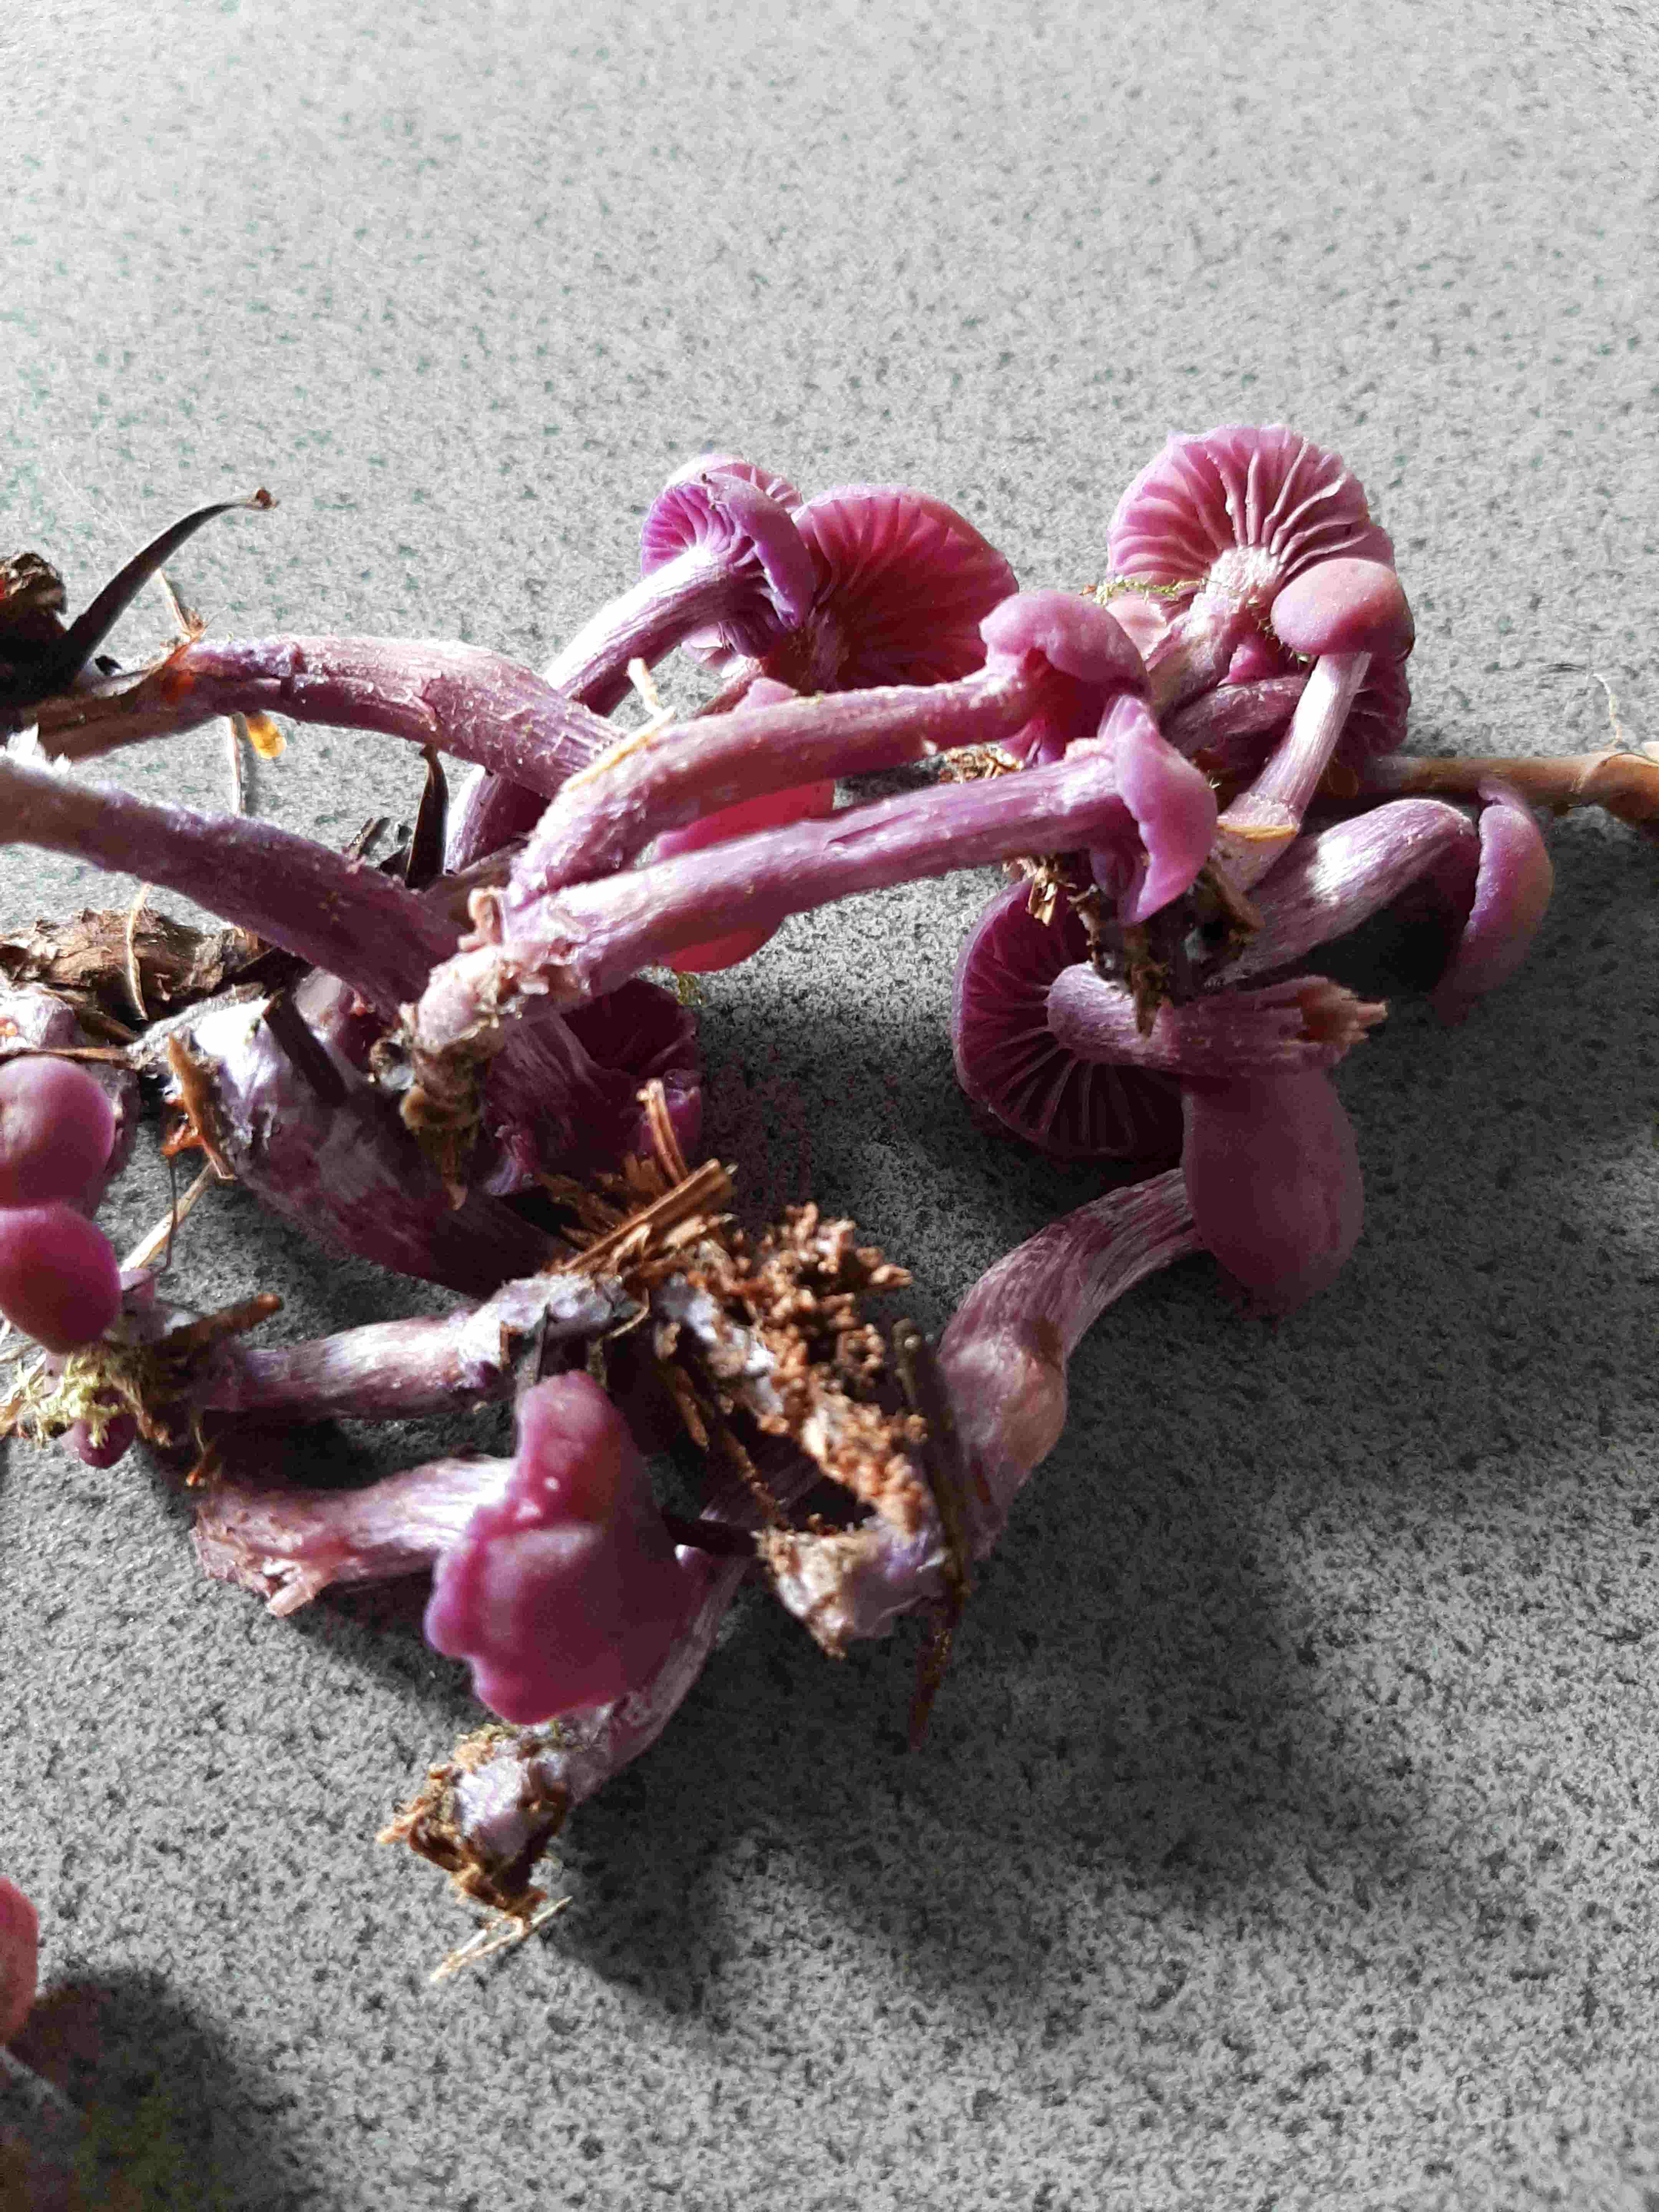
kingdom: Fungi
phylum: Basidiomycota
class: Agaricomycetes
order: Agaricales
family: Hydnangiaceae
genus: Laccaria
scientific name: Laccaria amethystina
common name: violet ametysthat
